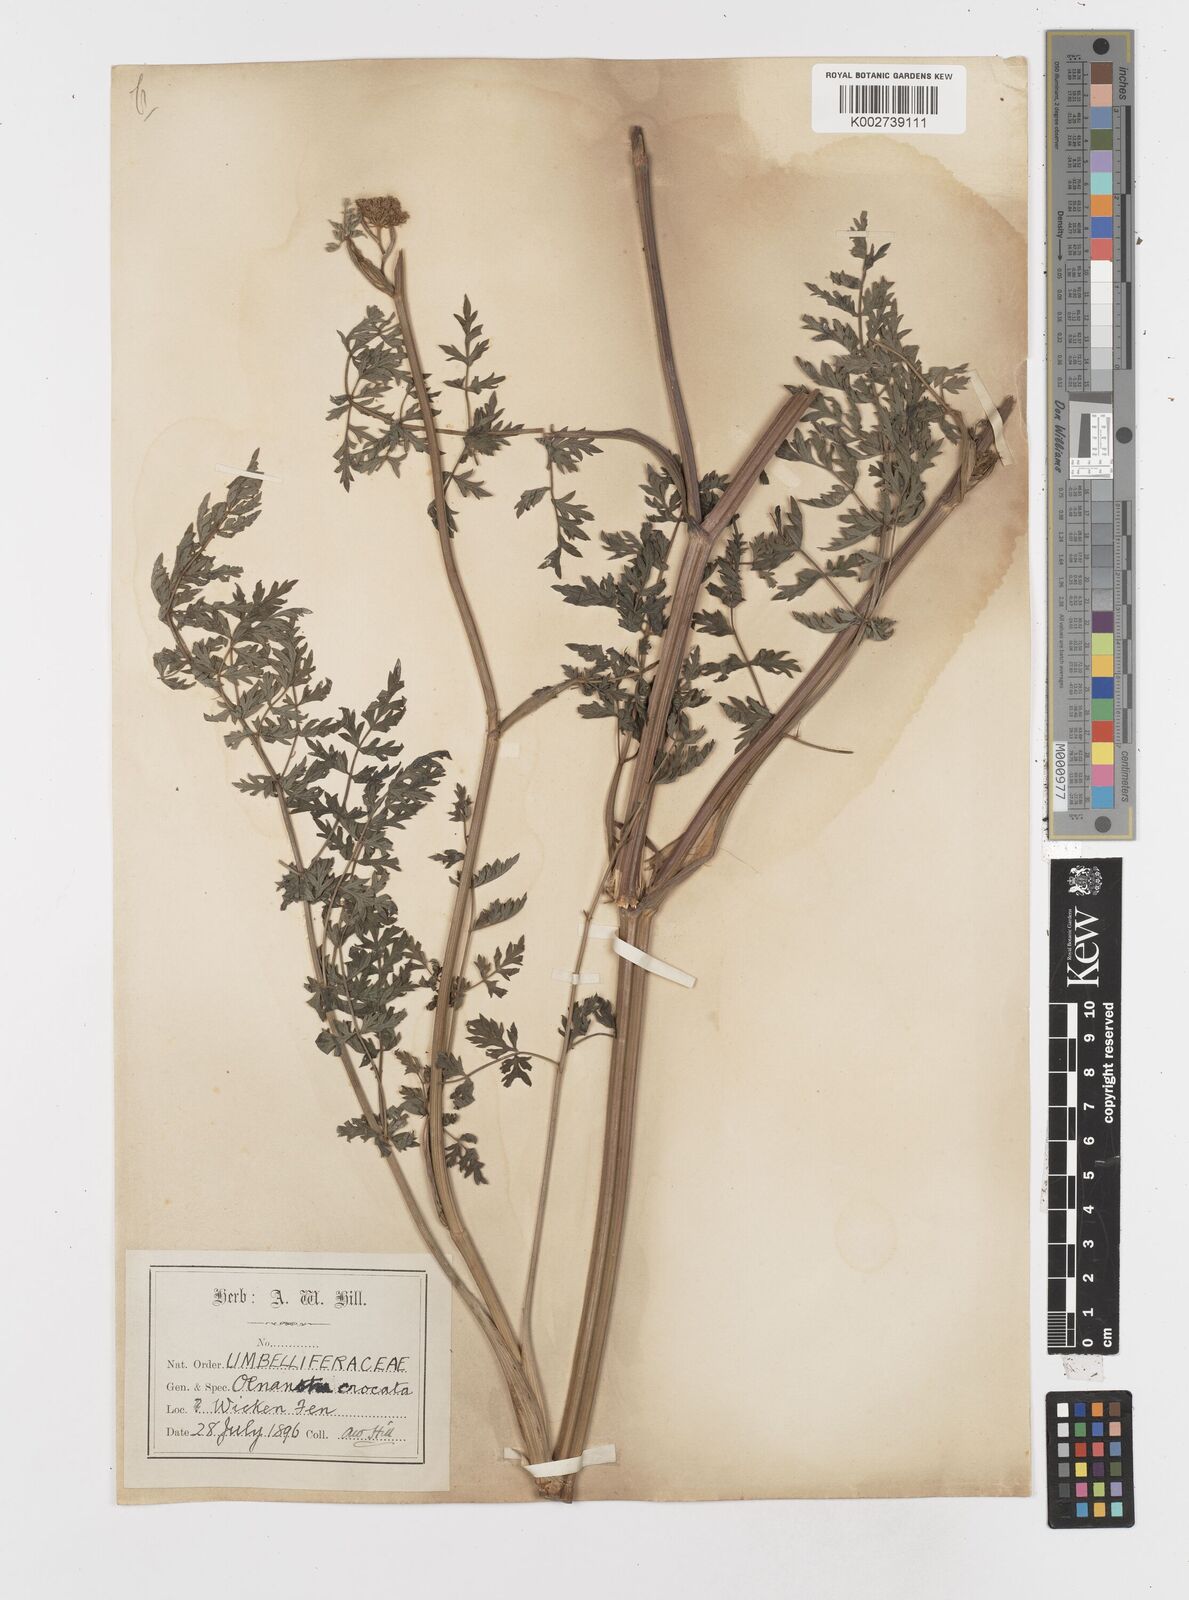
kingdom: Plantae
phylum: Tracheophyta
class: Magnoliopsida
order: Apiales
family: Apiaceae
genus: Oenanthe
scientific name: Oenanthe crocata
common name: Hemlock water-dropwort
